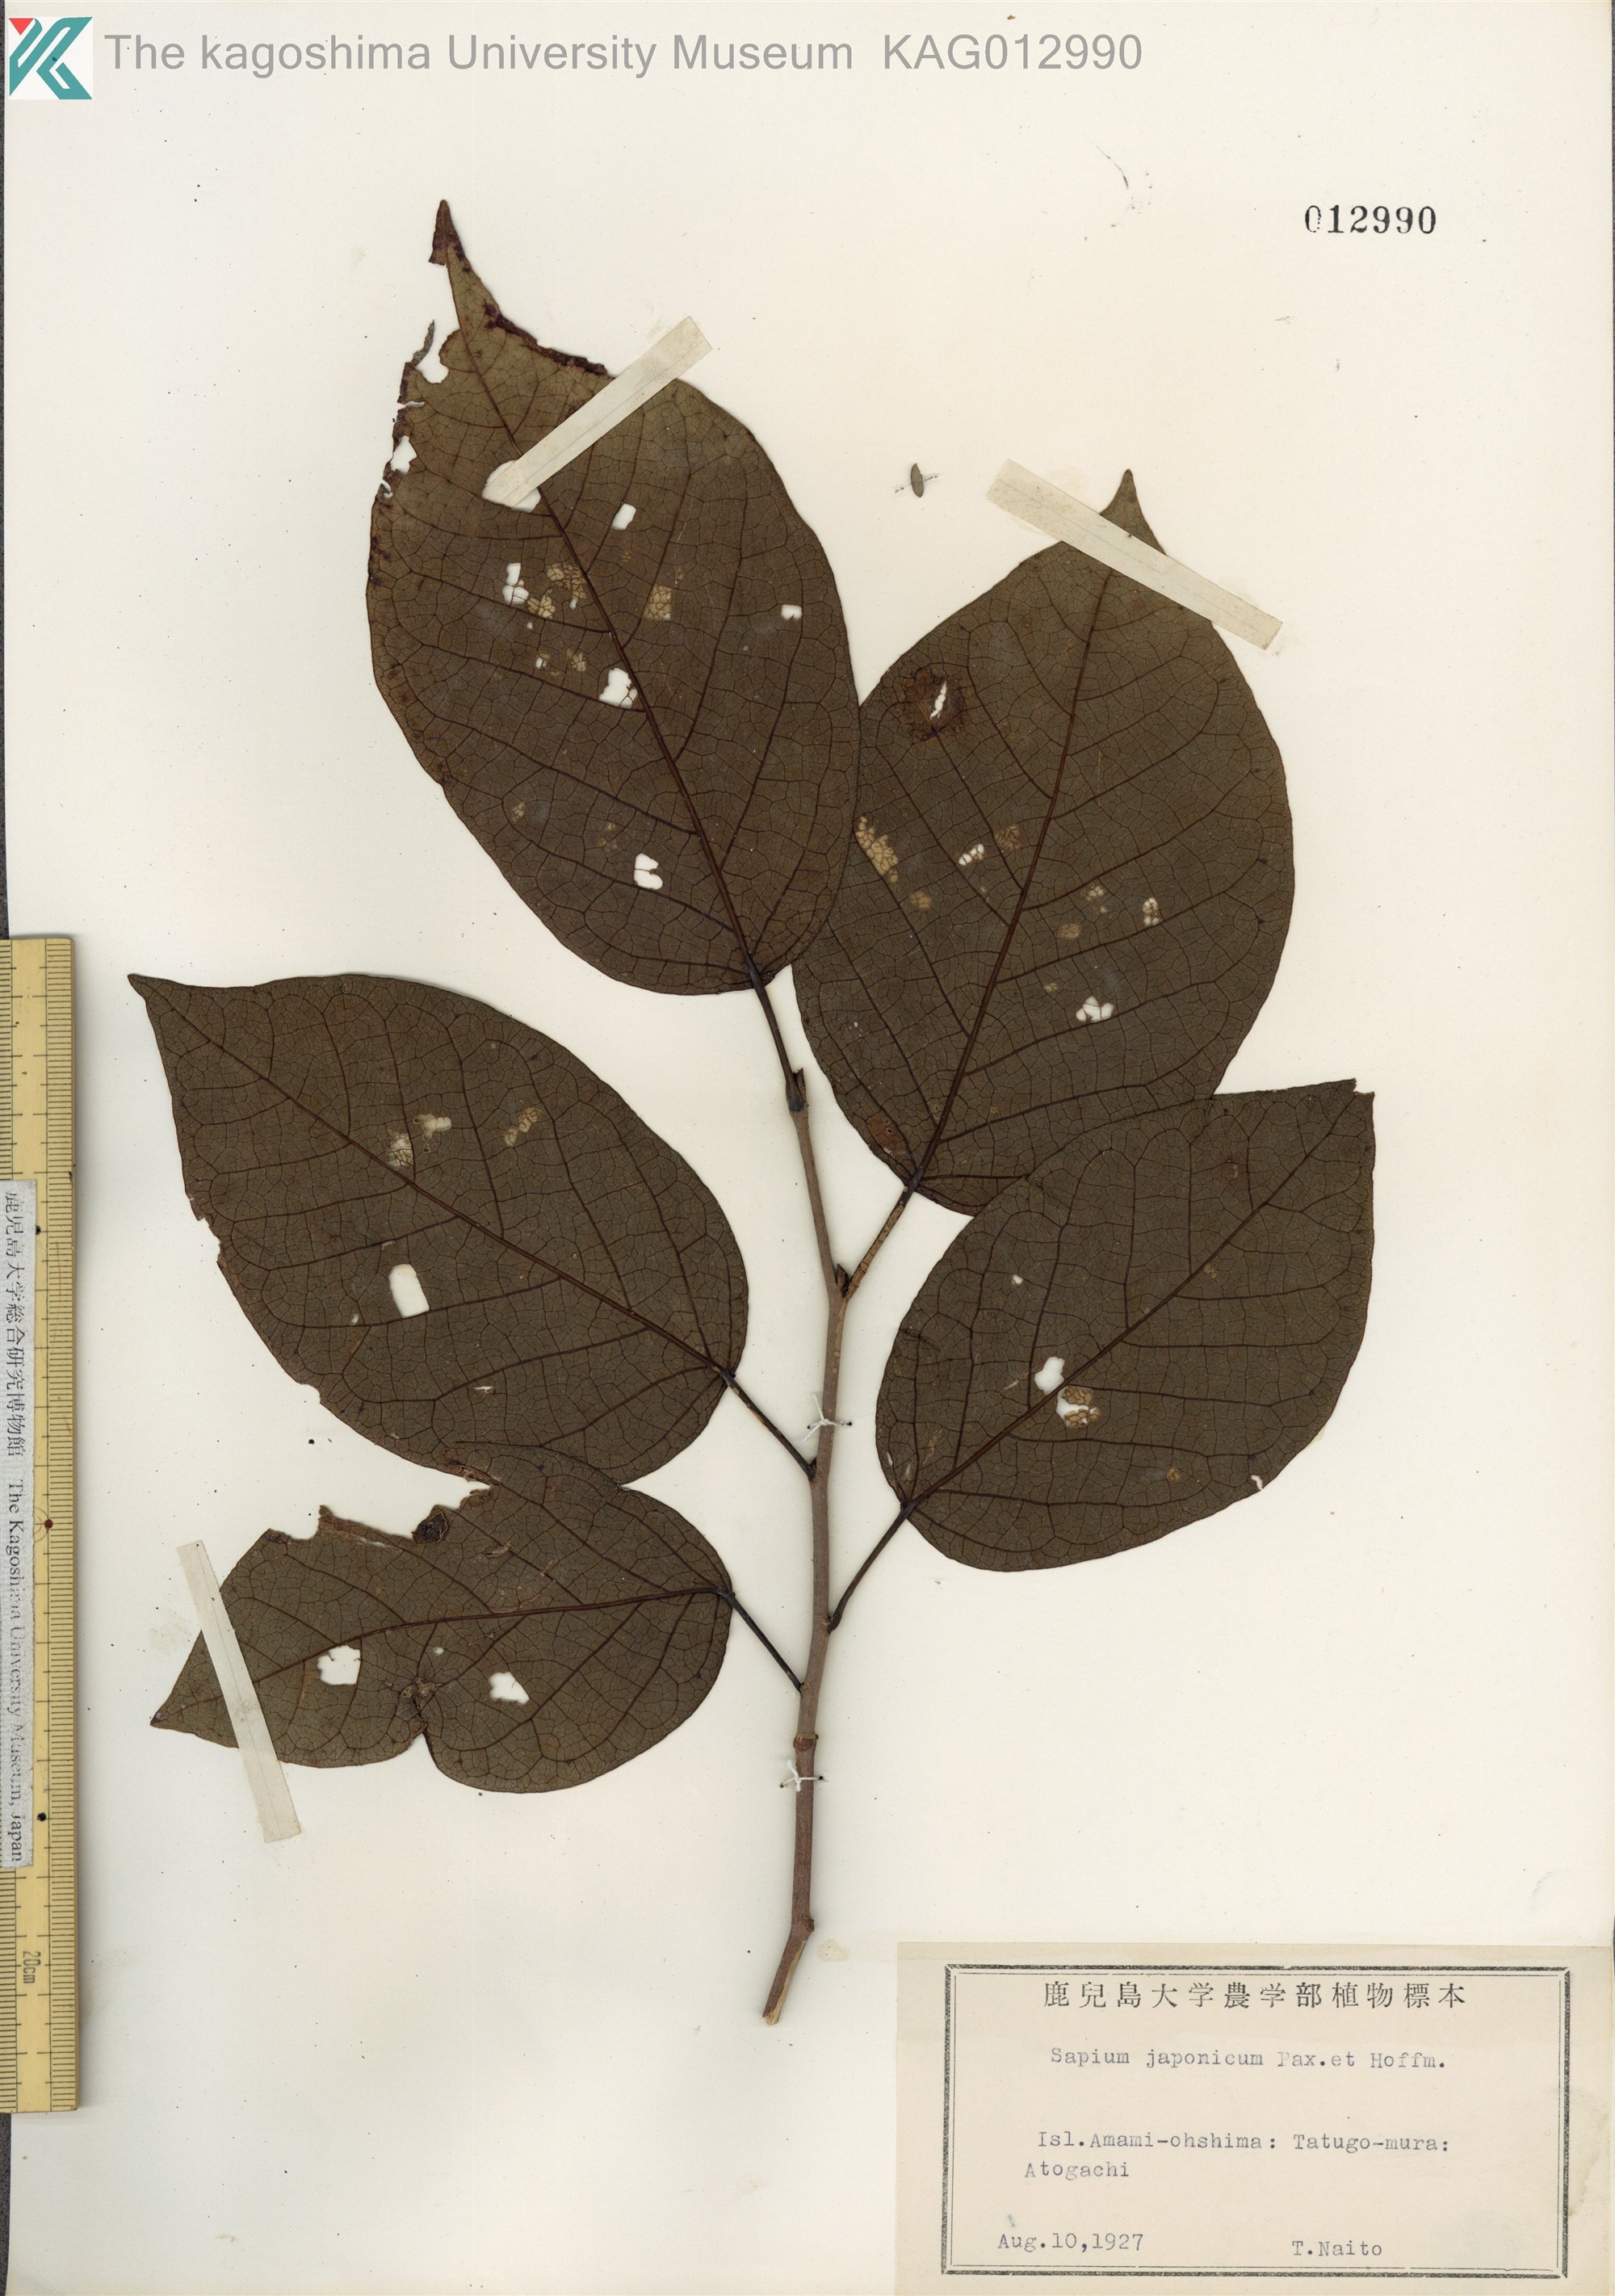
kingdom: Plantae
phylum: Tracheophyta
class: Magnoliopsida
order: Malpighiales
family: Euphorbiaceae
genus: Neoshirakia
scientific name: Neoshirakia japonica
